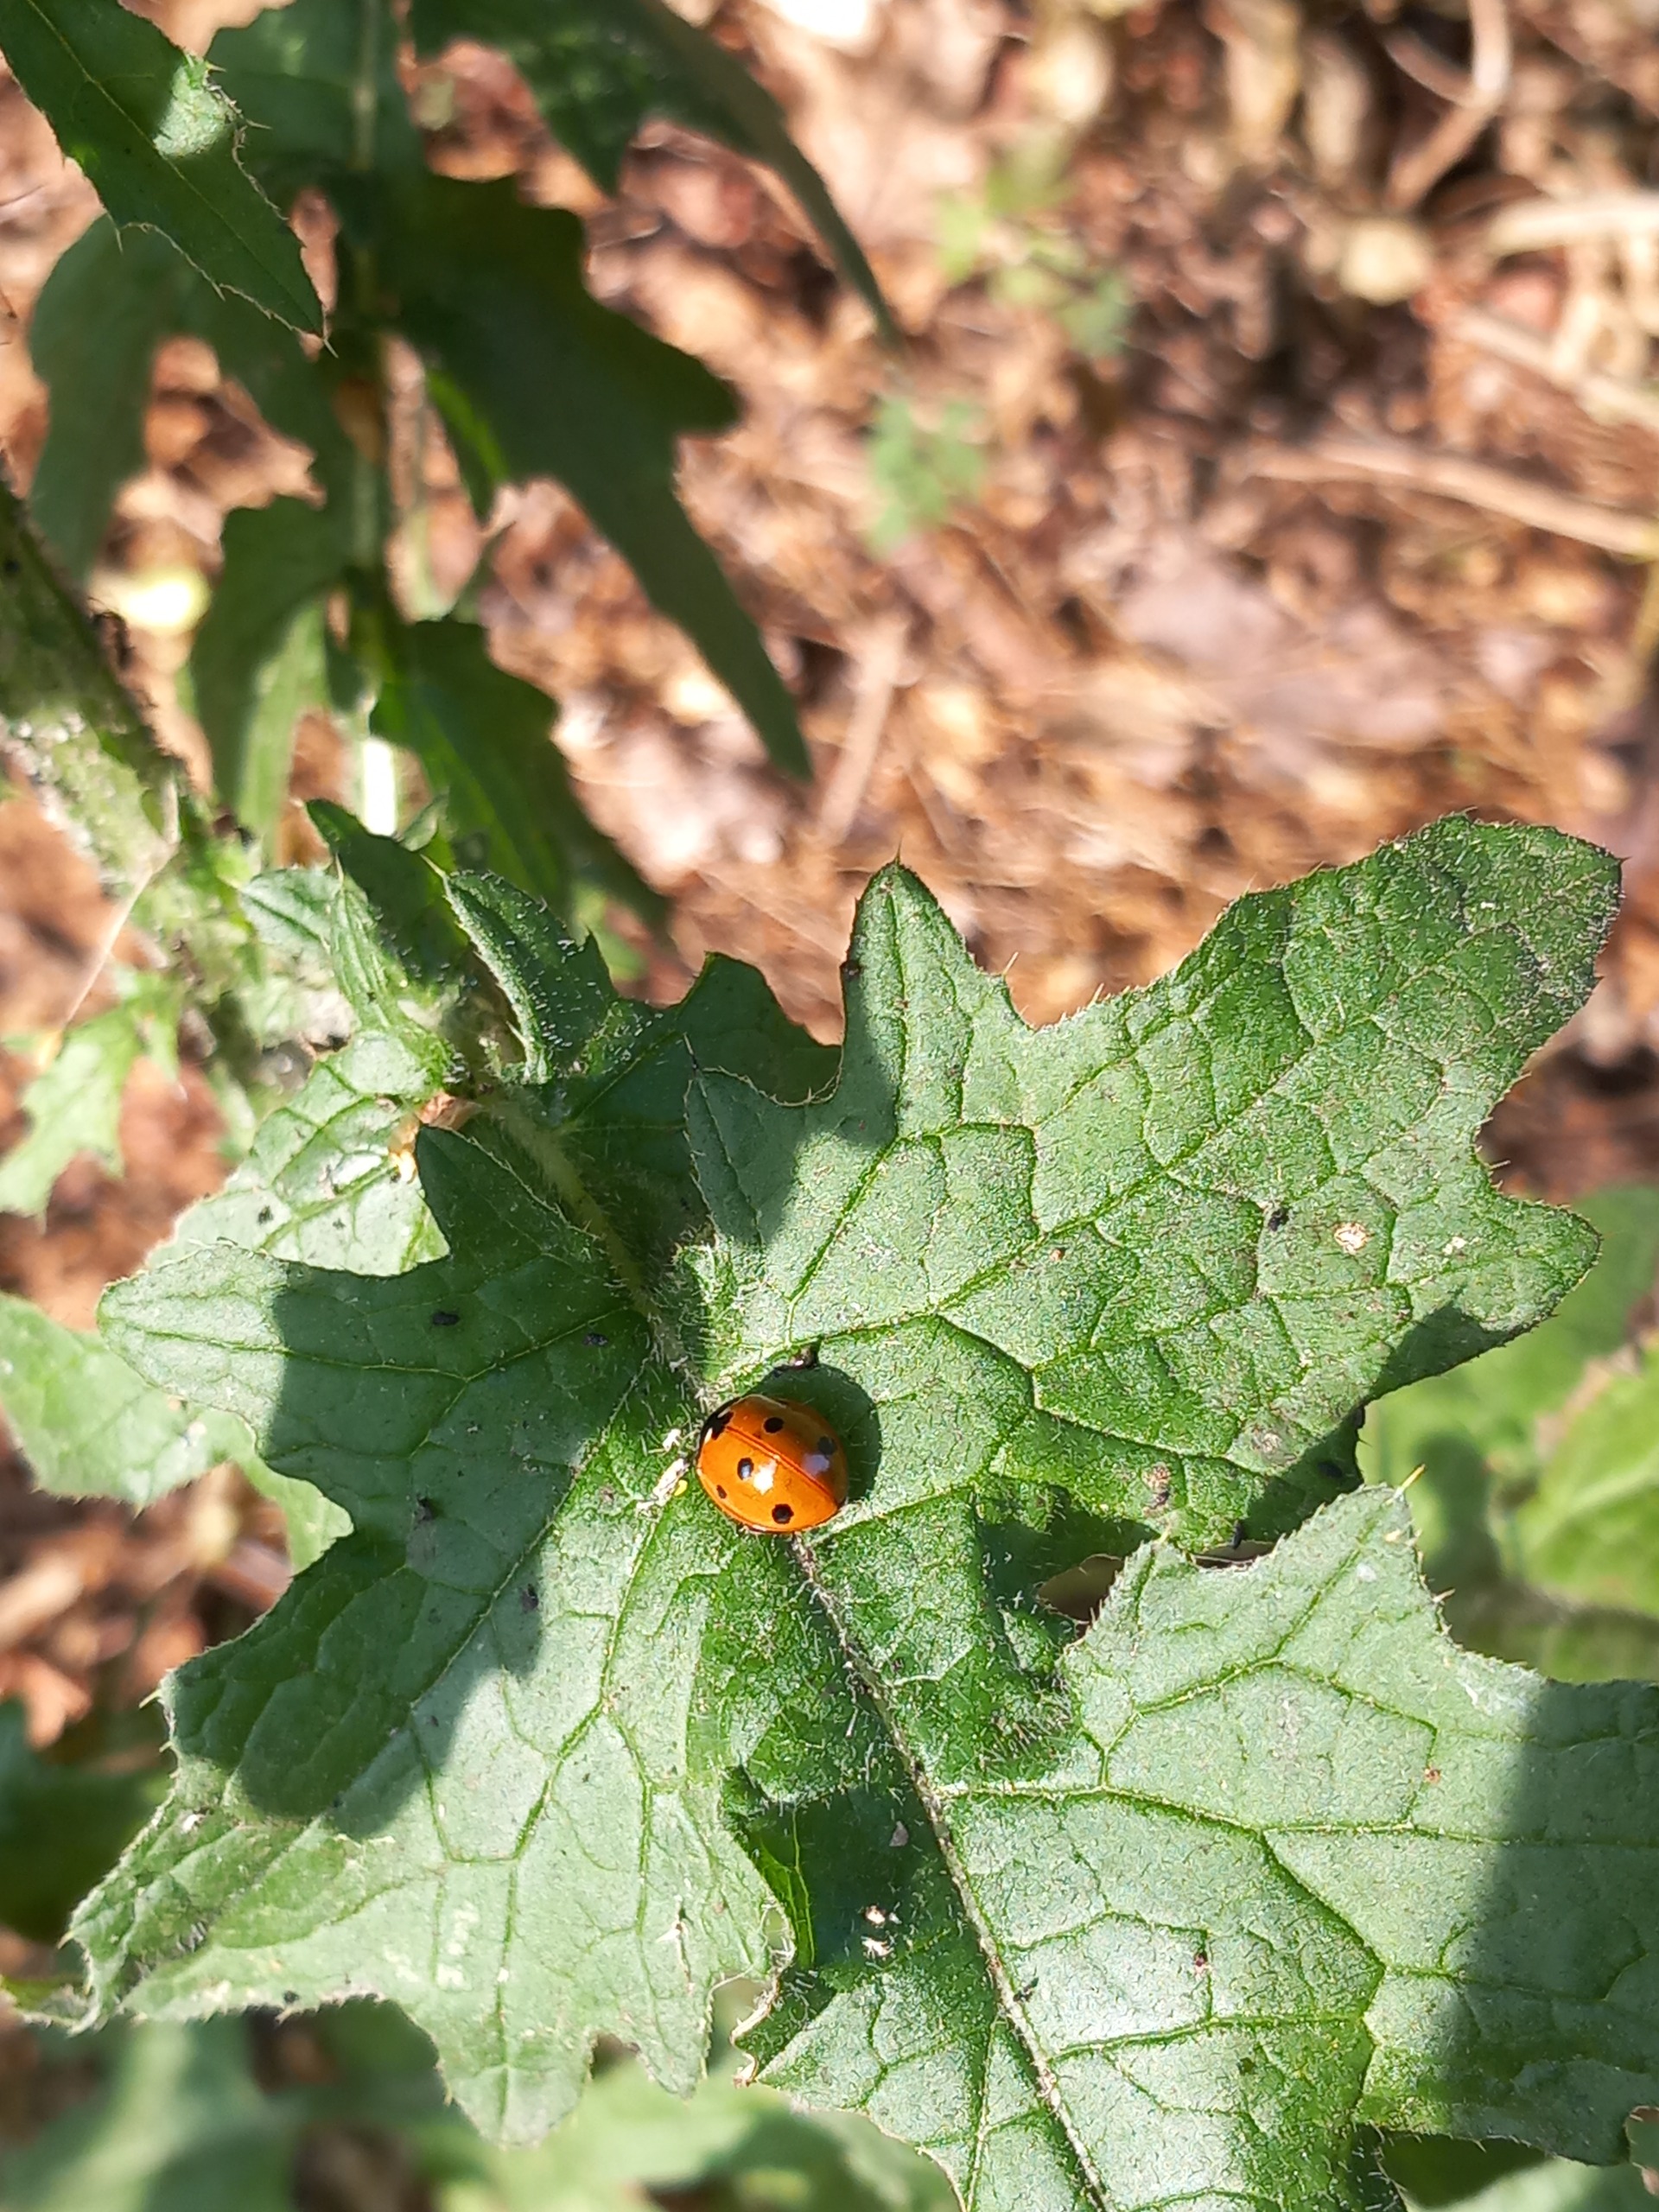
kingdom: Animalia
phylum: Arthropoda
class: Insecta
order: Coleoptera
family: Coccinellidae
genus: Coccinella
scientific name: Coccinella septempunctata
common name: Syvplettet mariehøne
